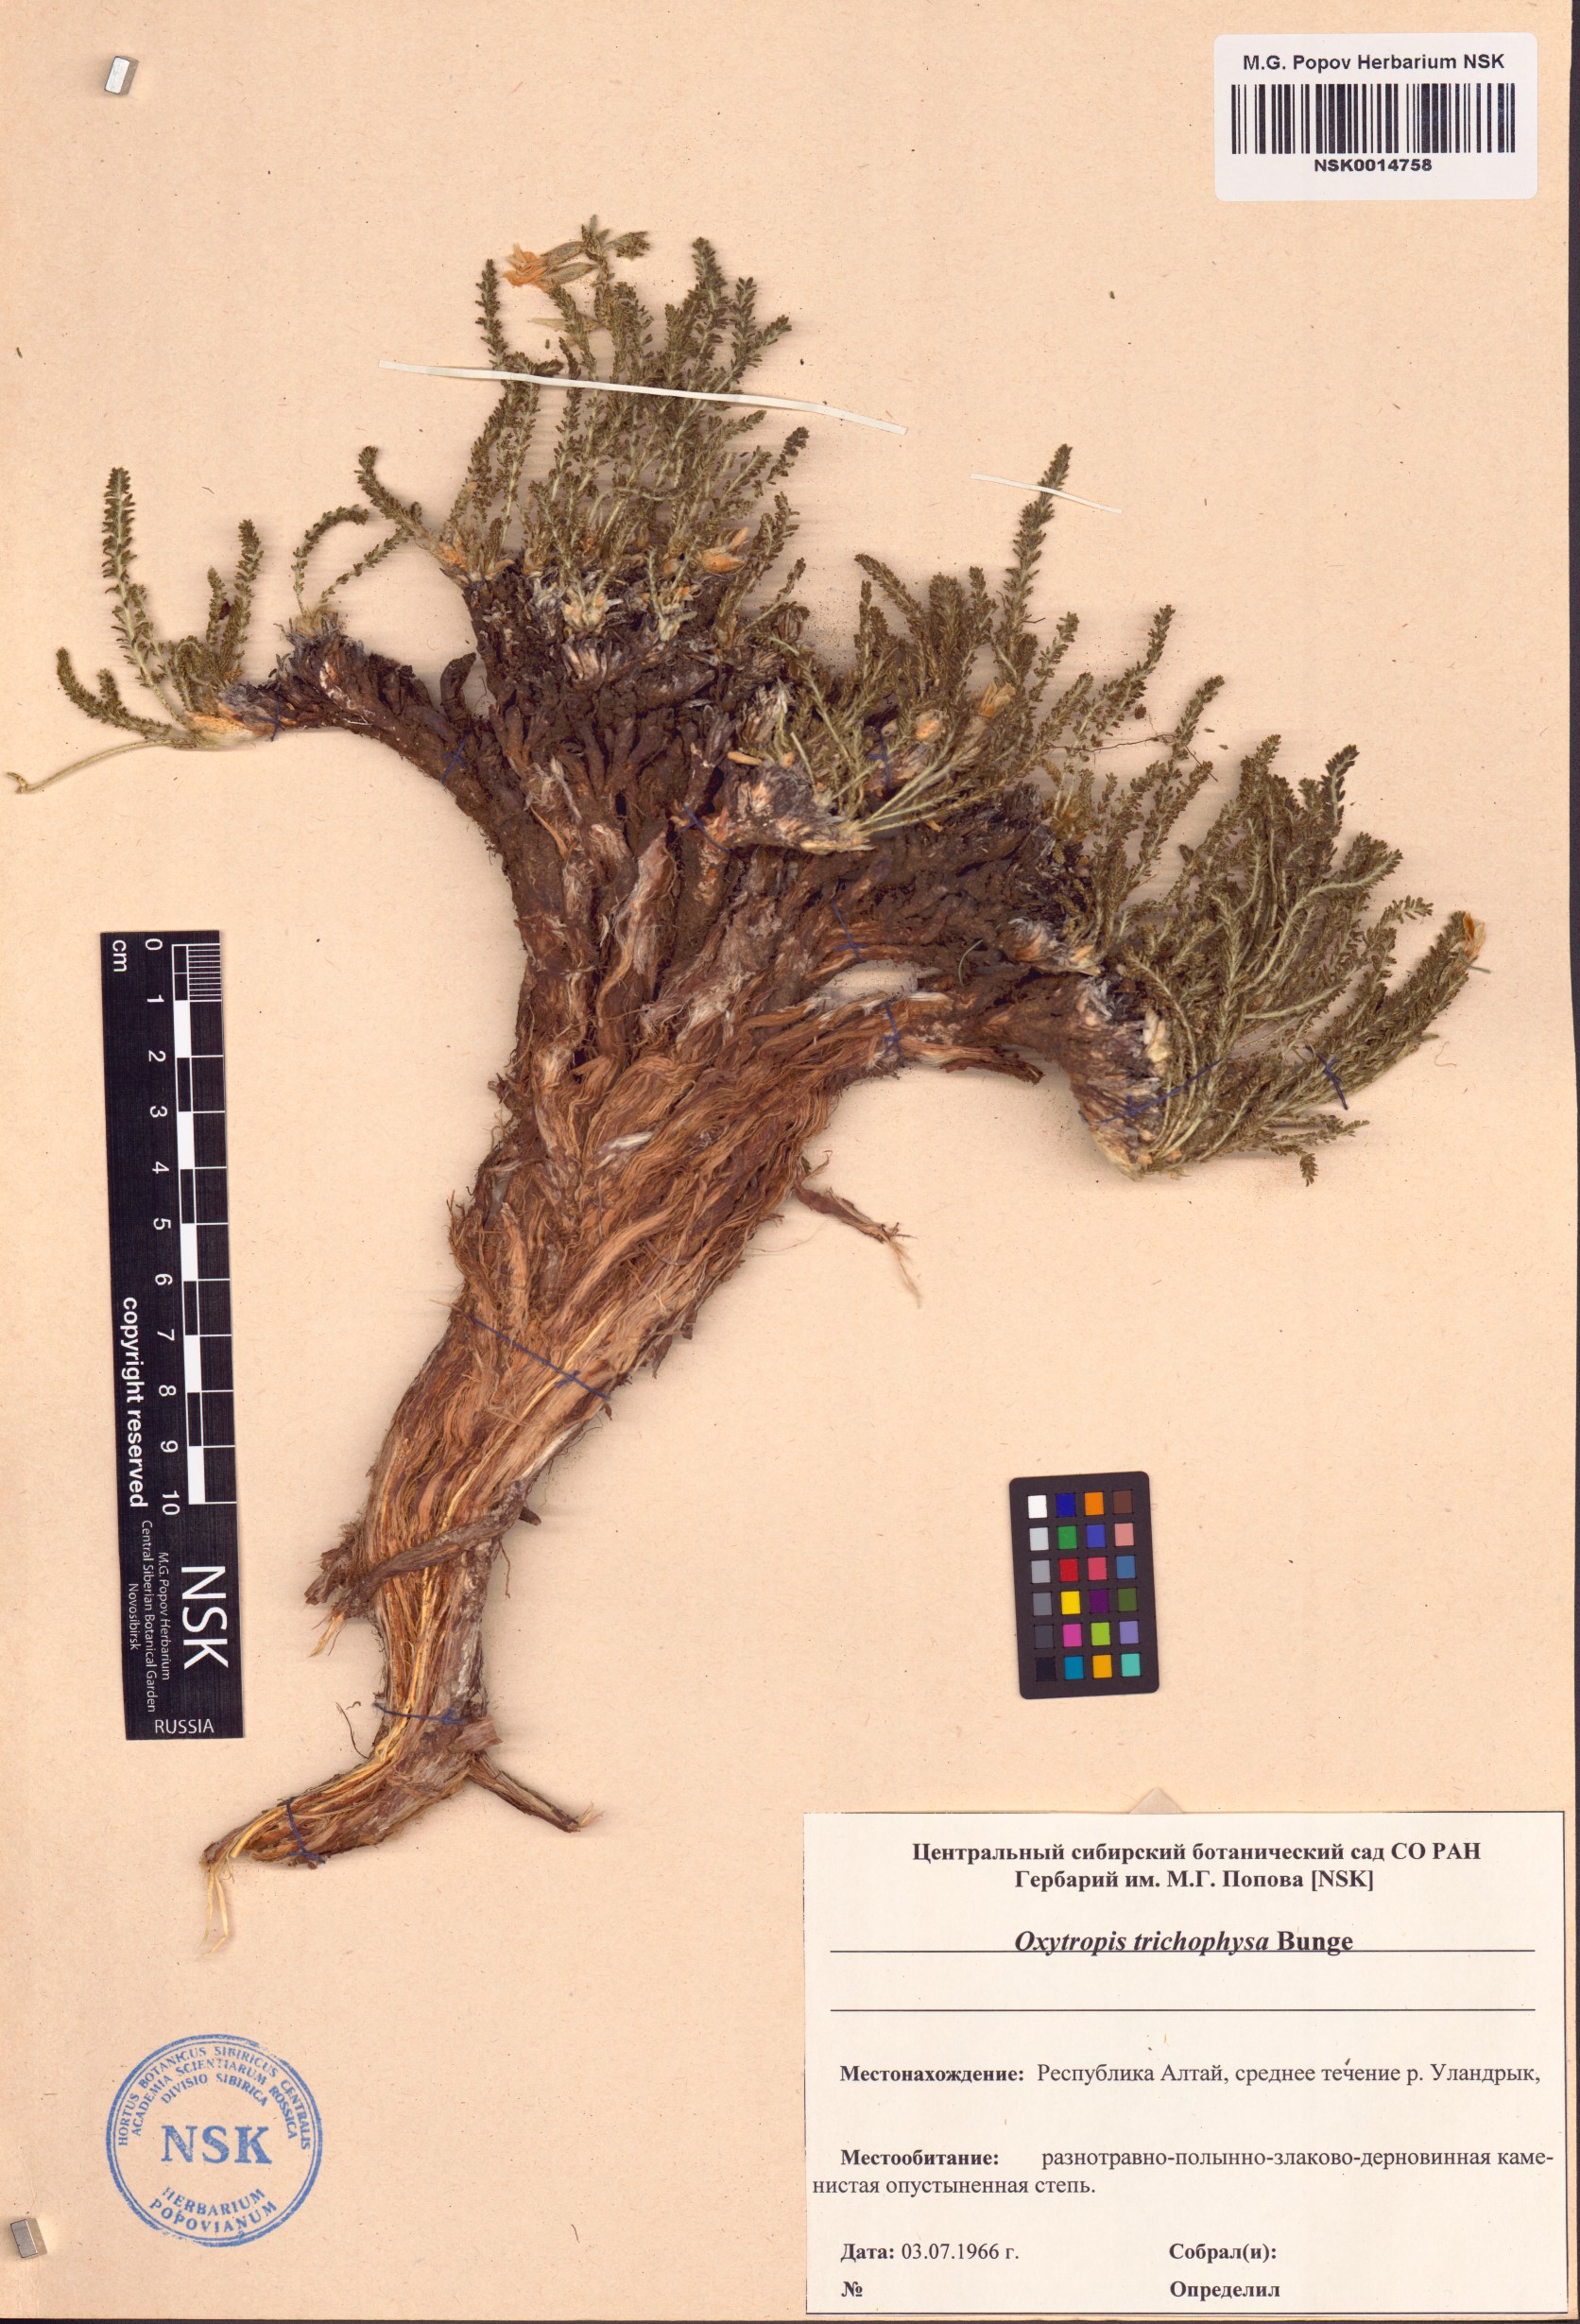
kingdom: Plantae
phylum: Tracheophyta
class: Magnoliopsida
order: Fabales
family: Fabaceae
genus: Oxytropis
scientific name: Oxytropis trichophysa
